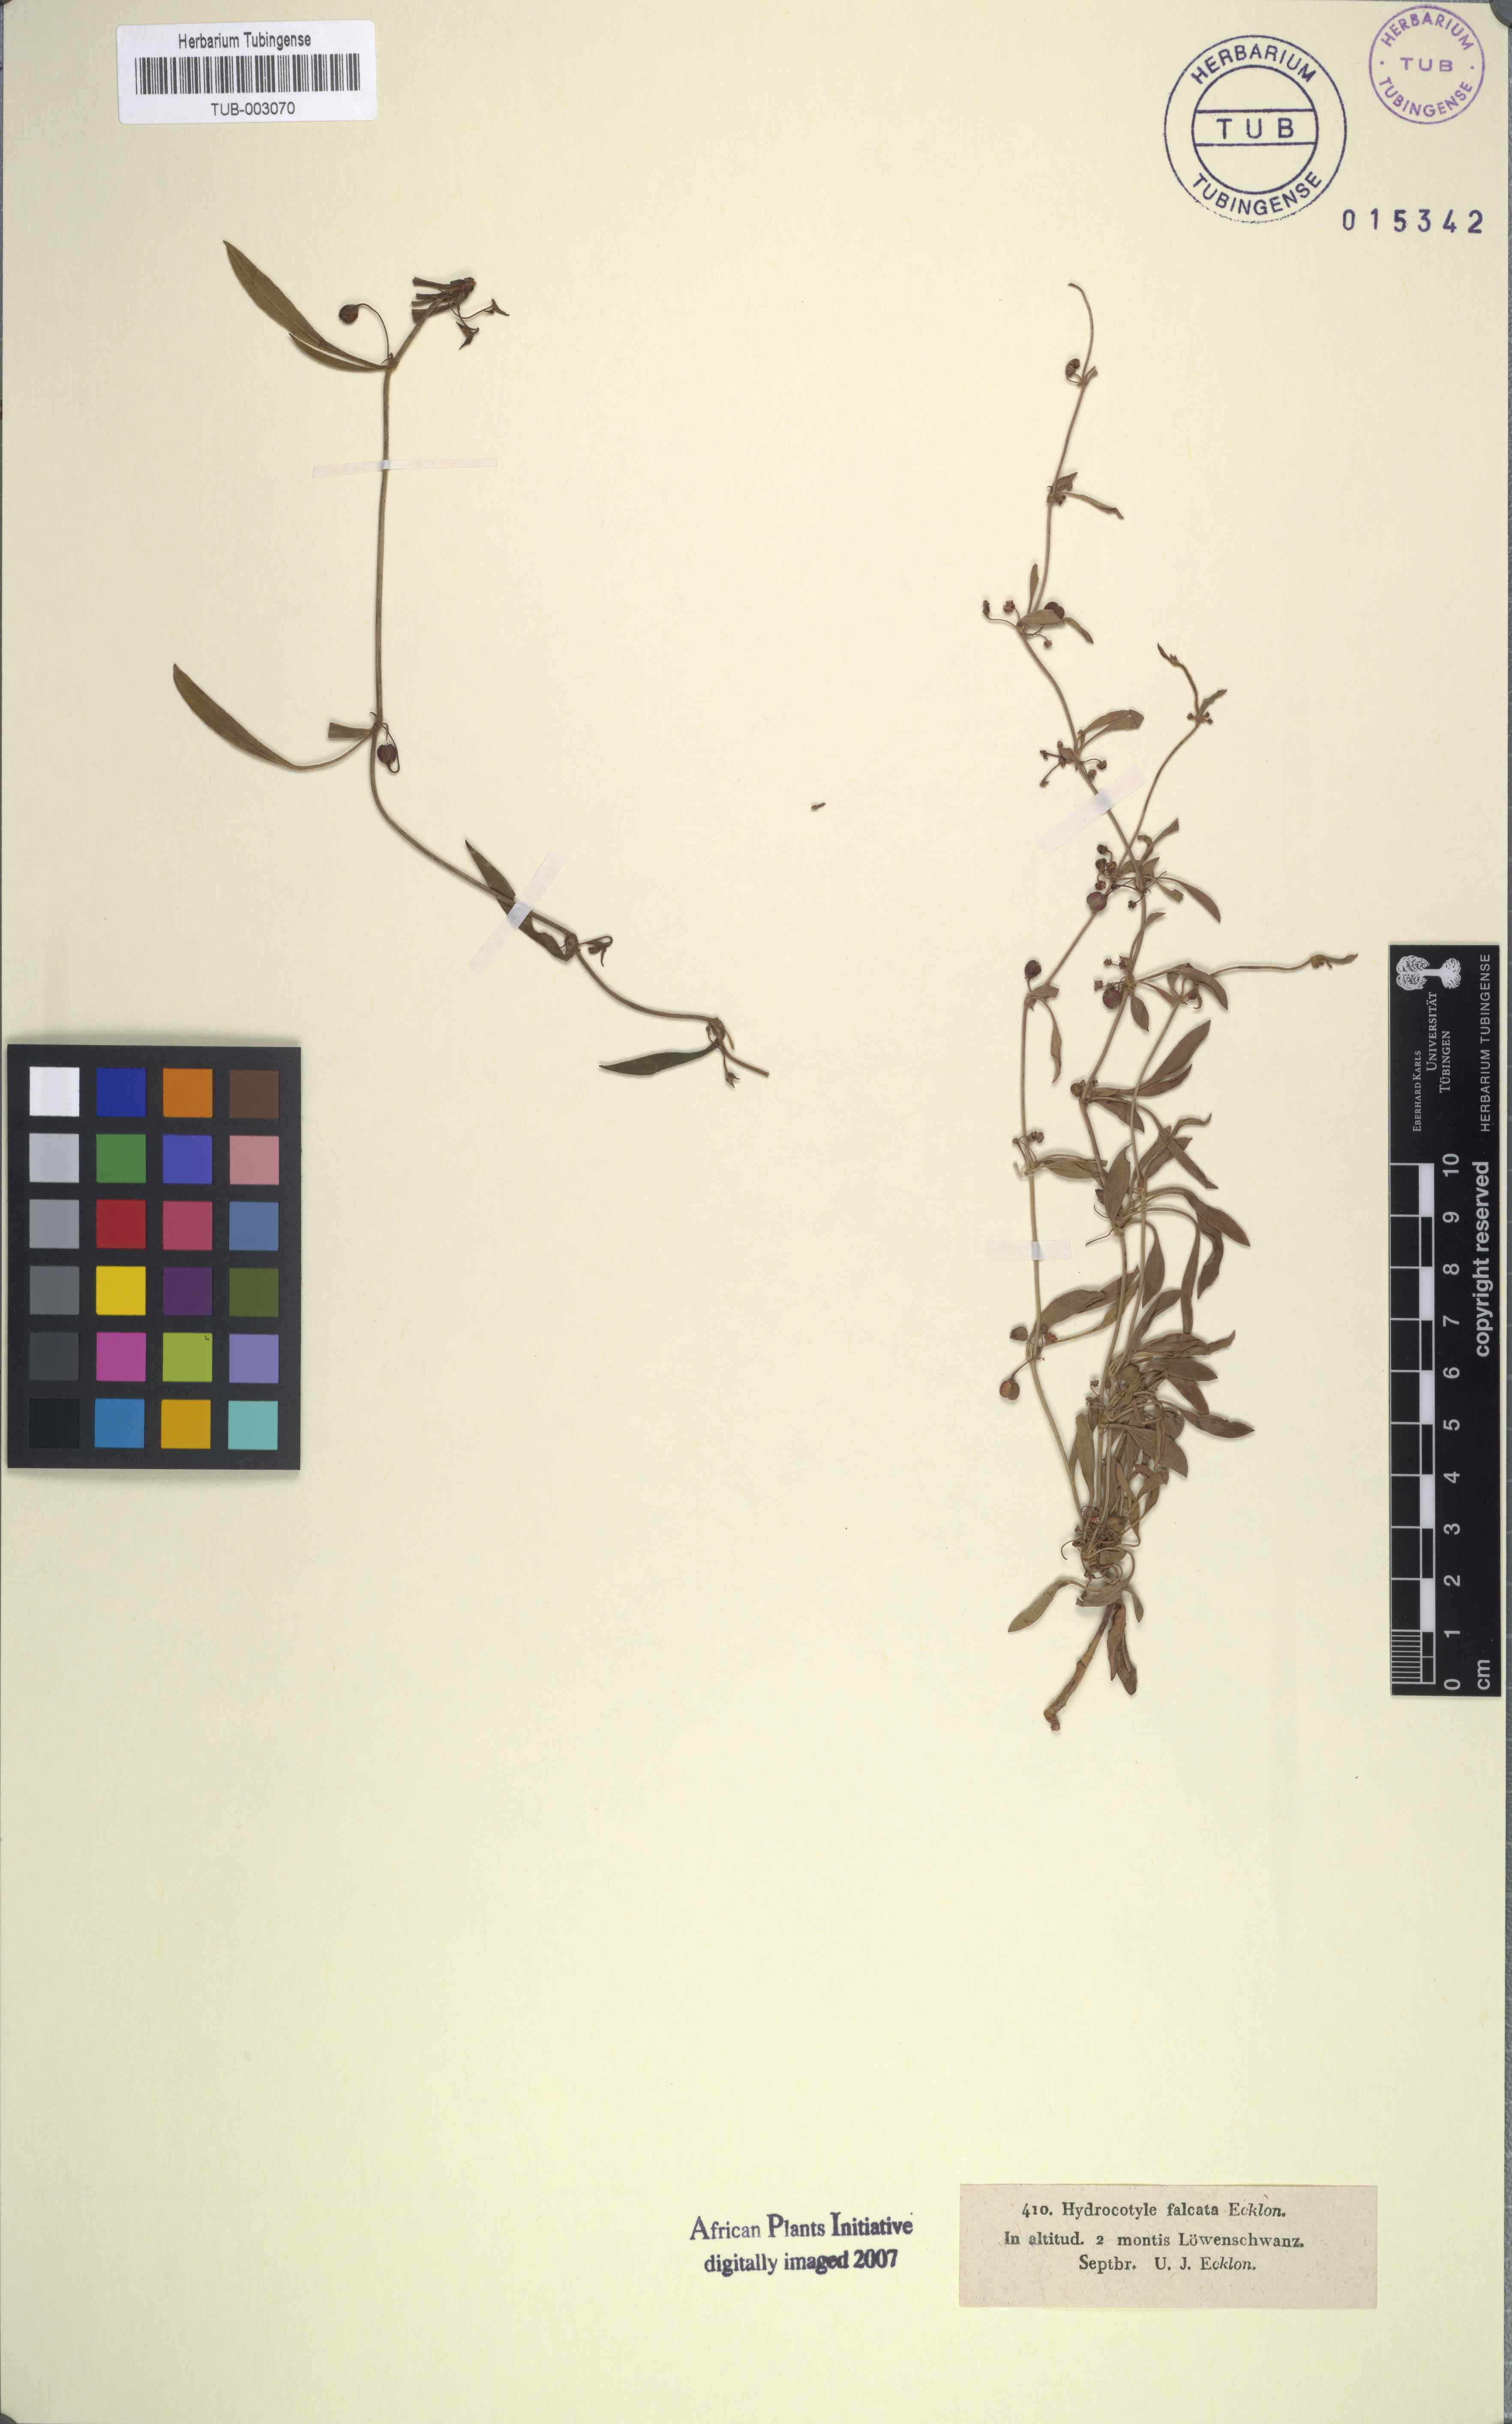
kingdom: Plantae
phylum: Tracheophyta
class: Magnoliopsida
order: Apiales
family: Apiaceae
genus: Centella
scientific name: Centella glabrata
